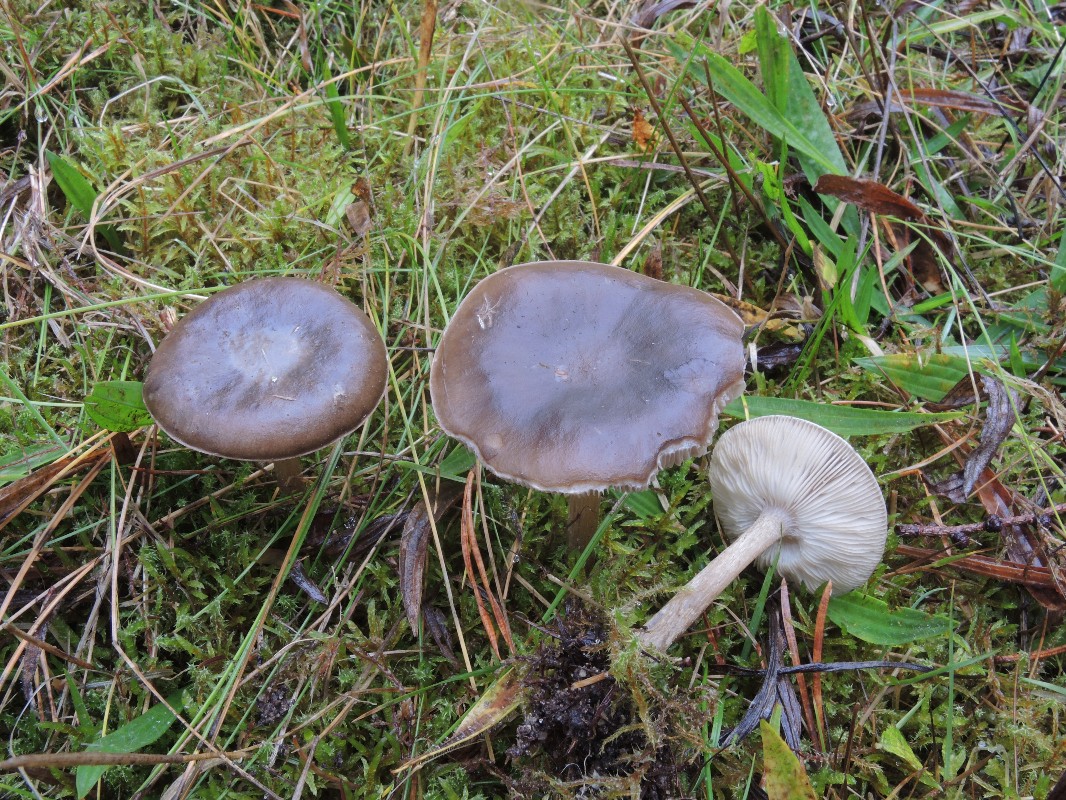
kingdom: Fungi
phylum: Basidiomycota
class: Agaricomycetes
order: Agaricales
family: Tricholomataceae
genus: Melanoleuca
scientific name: Melanoleuca polioleuca
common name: almindelig munkehat
